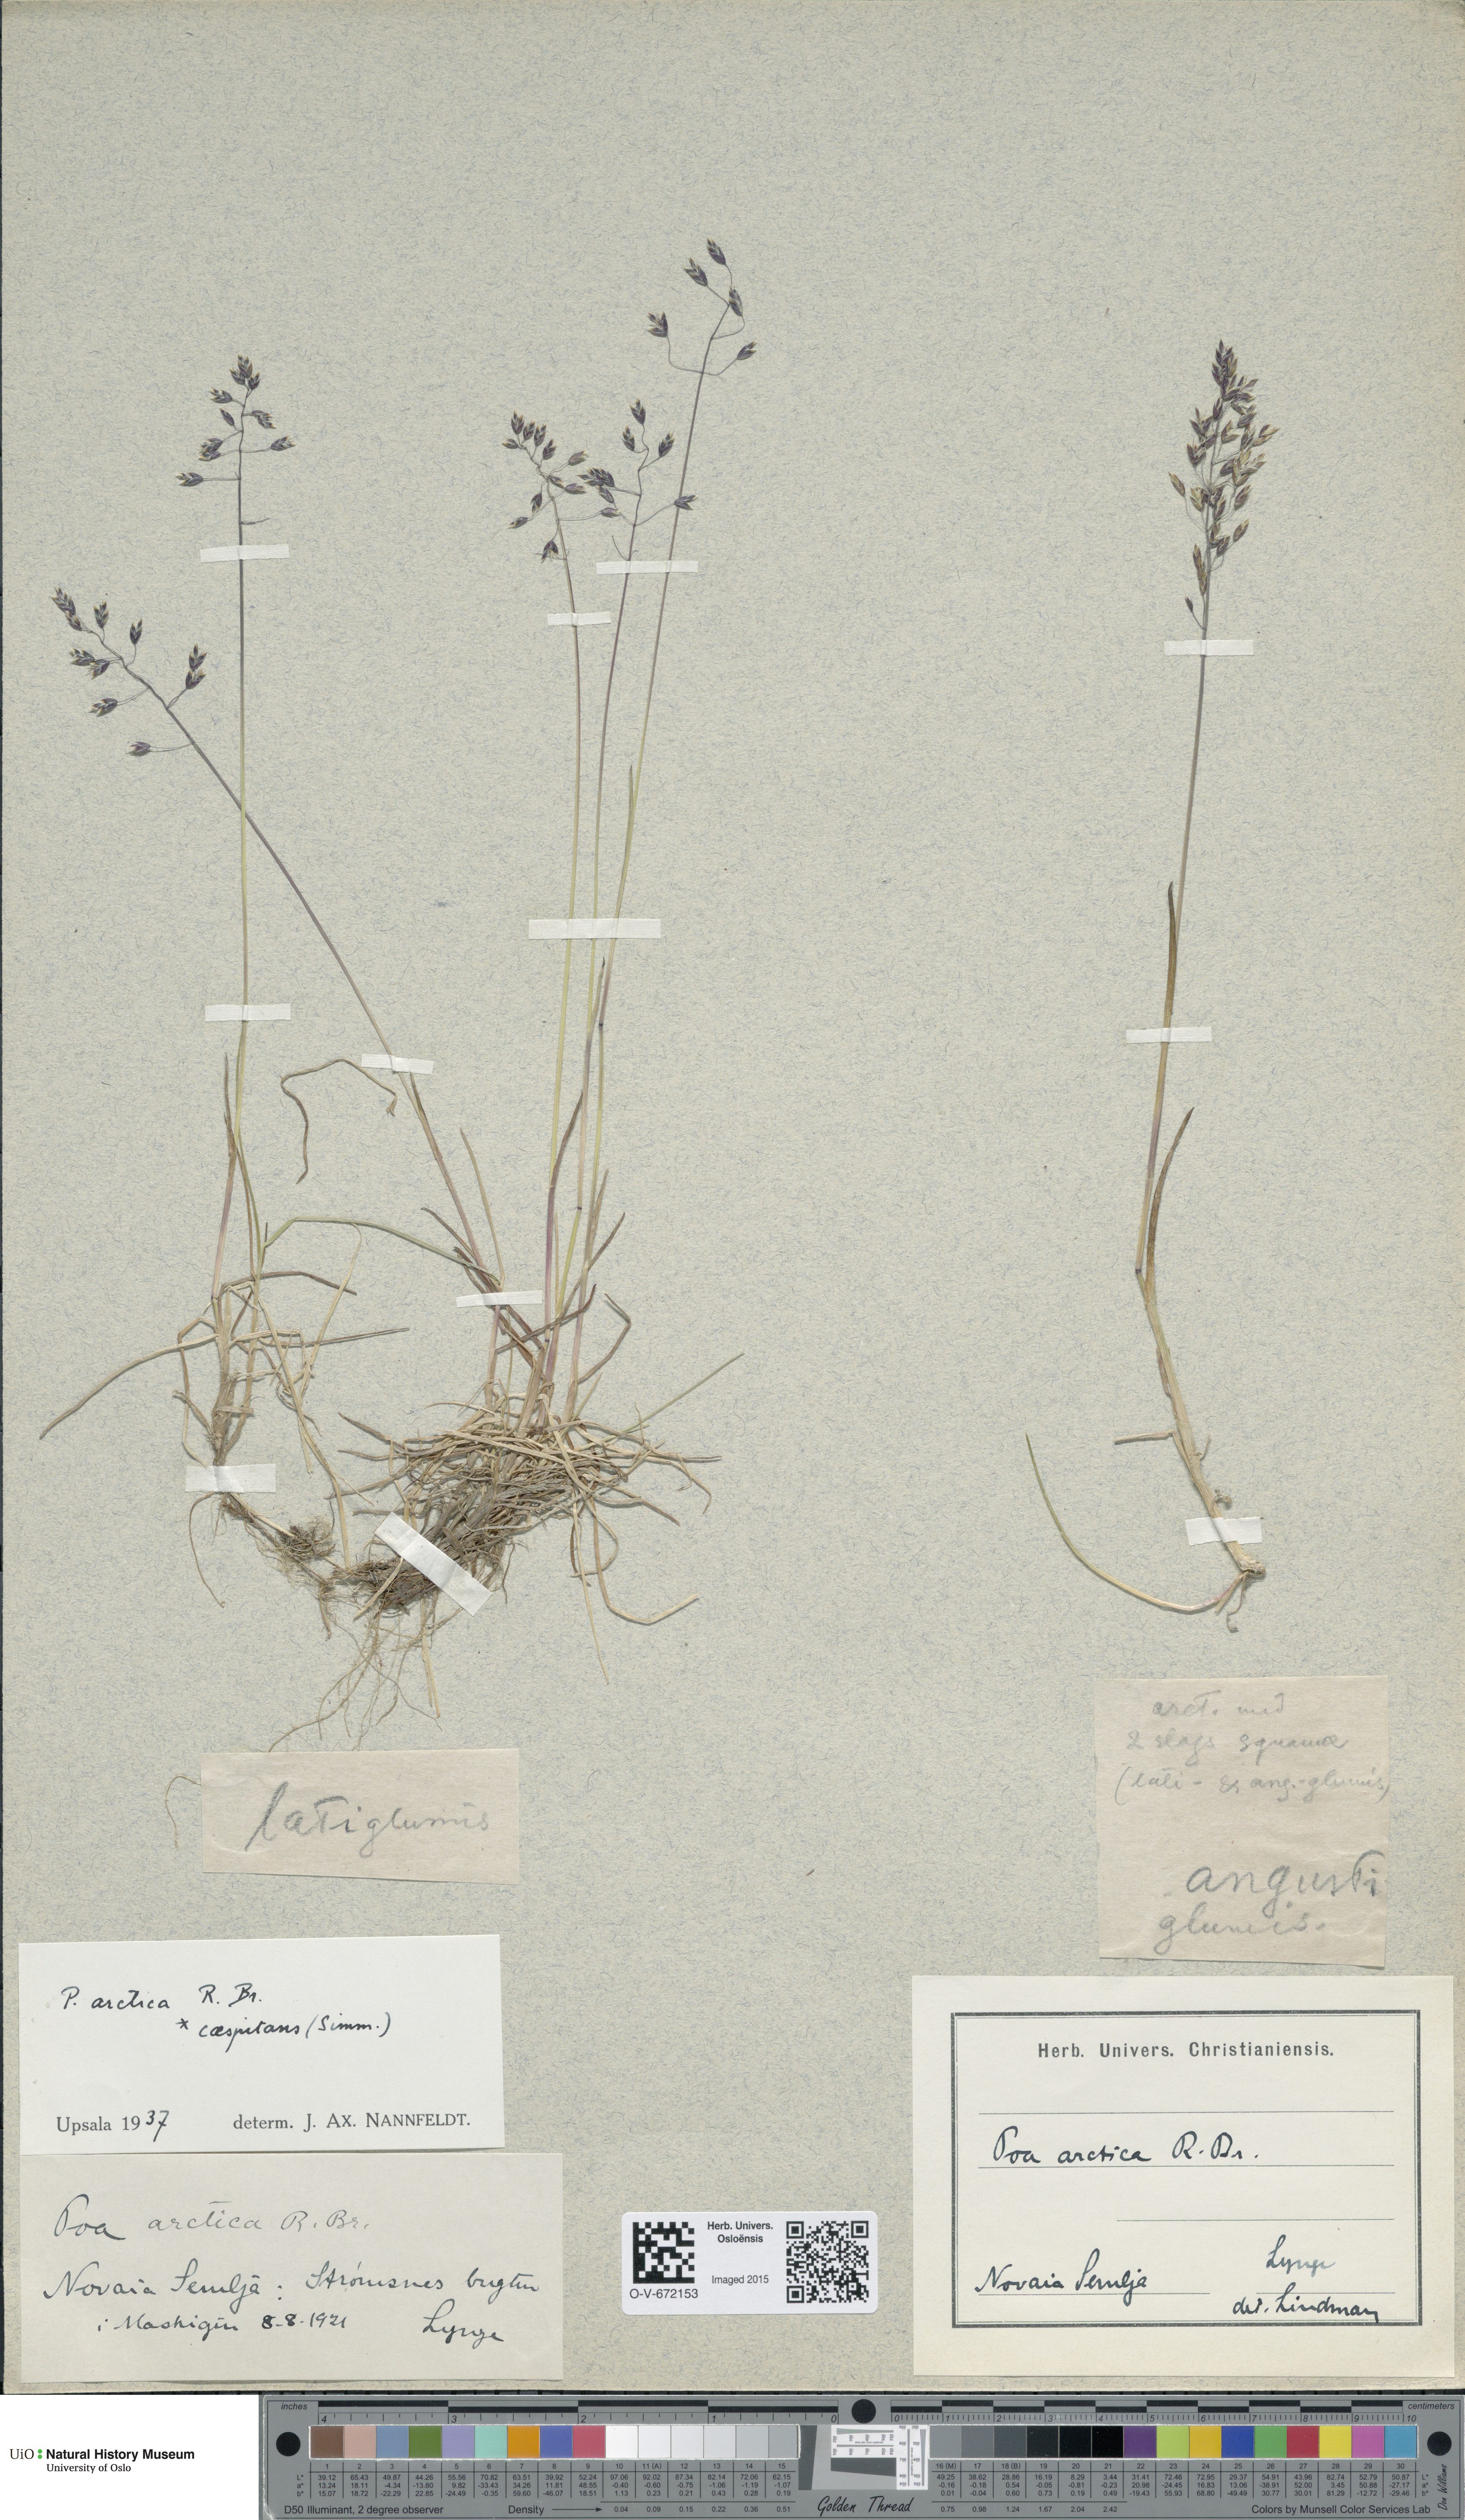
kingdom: Plantae
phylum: Tracheophyta
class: Liliopsida
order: Poales
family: Poaceae
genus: Poa
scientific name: Poa tolmatchewii
